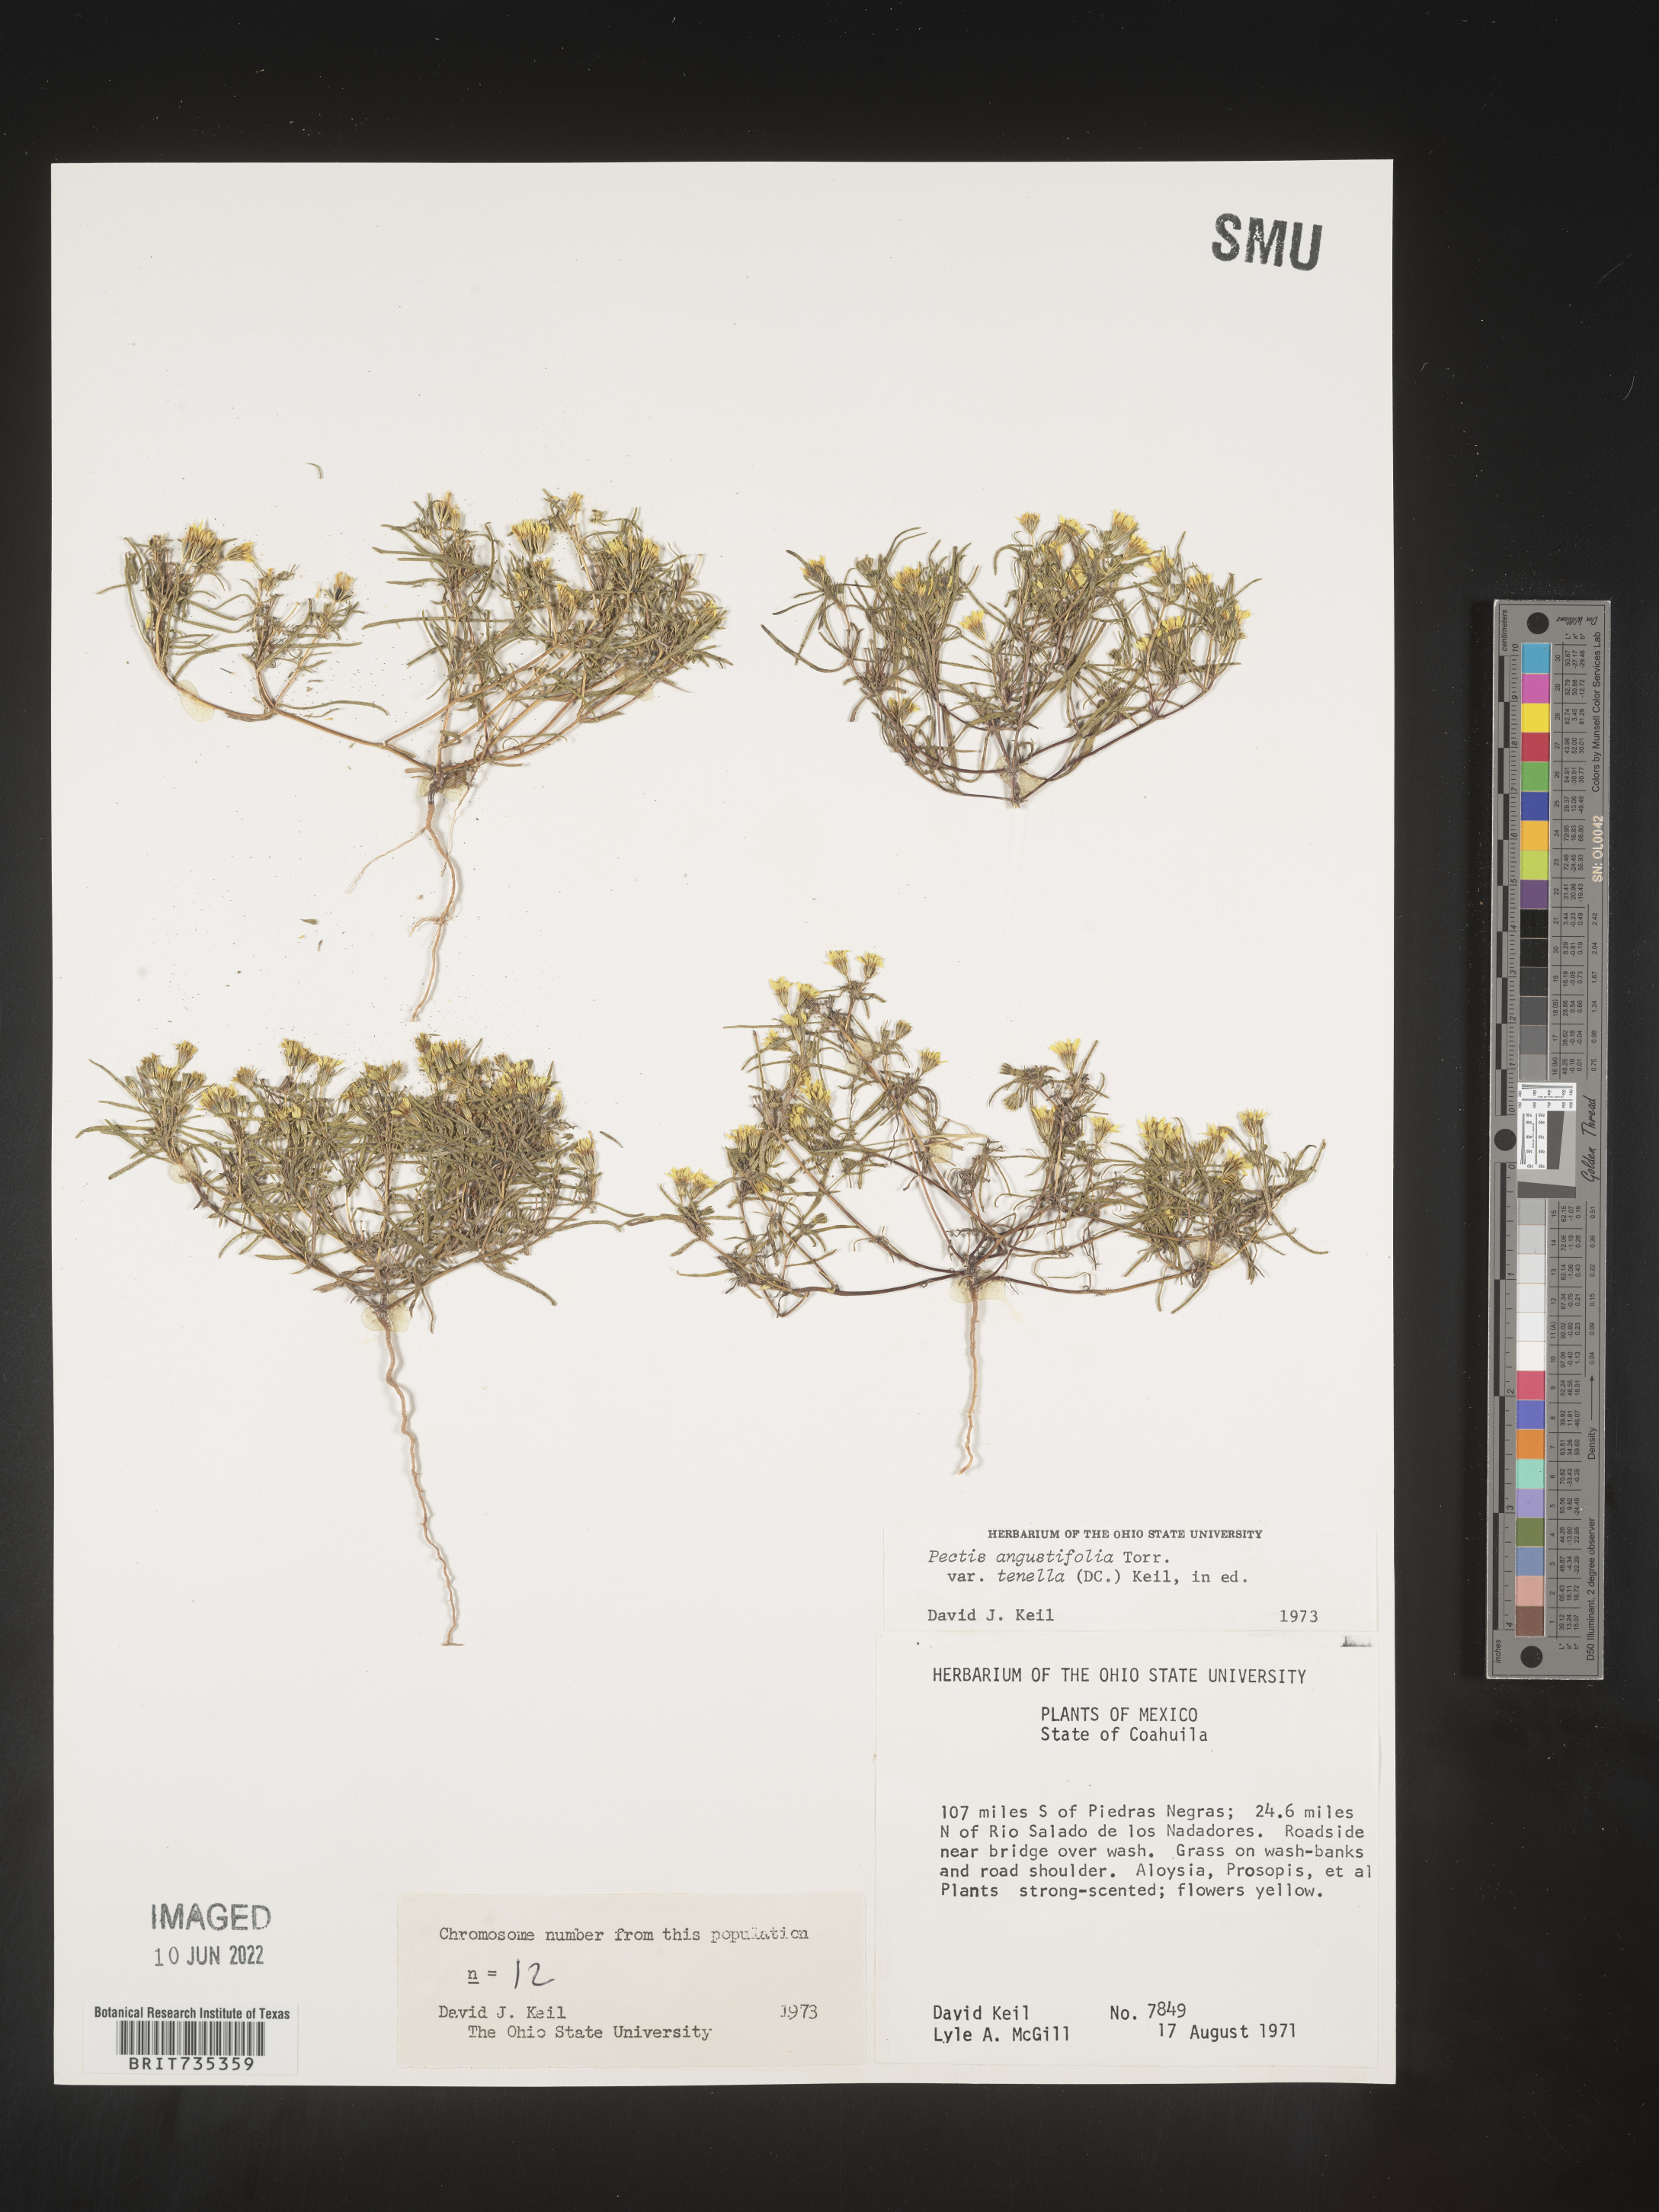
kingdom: Plantae
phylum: Tracheophyta
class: Magnoliopsida
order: Asterales
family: Asteraceae
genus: Pectis
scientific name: Pectis
